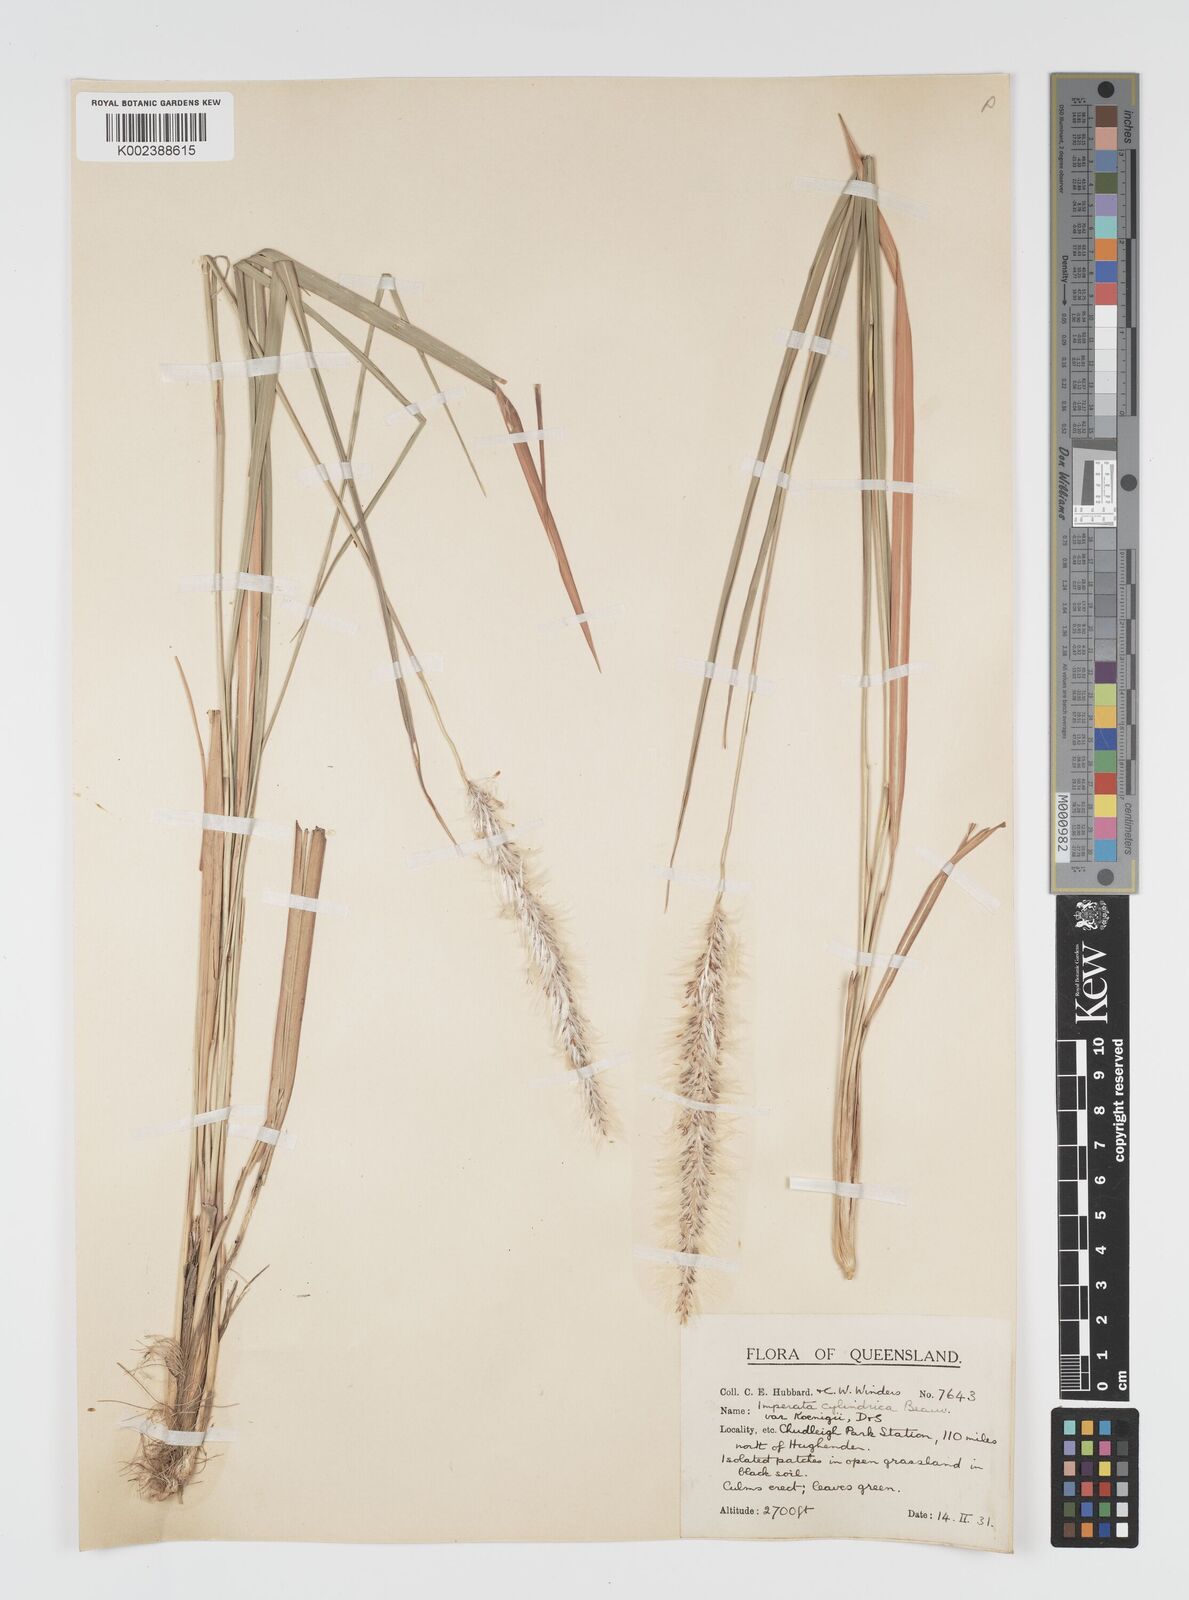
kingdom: Plantae
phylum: Tracheophyta
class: Liliopsida
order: Poales
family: Poaceae
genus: Imperata
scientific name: Imperata cylindrica
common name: Cogongrass
